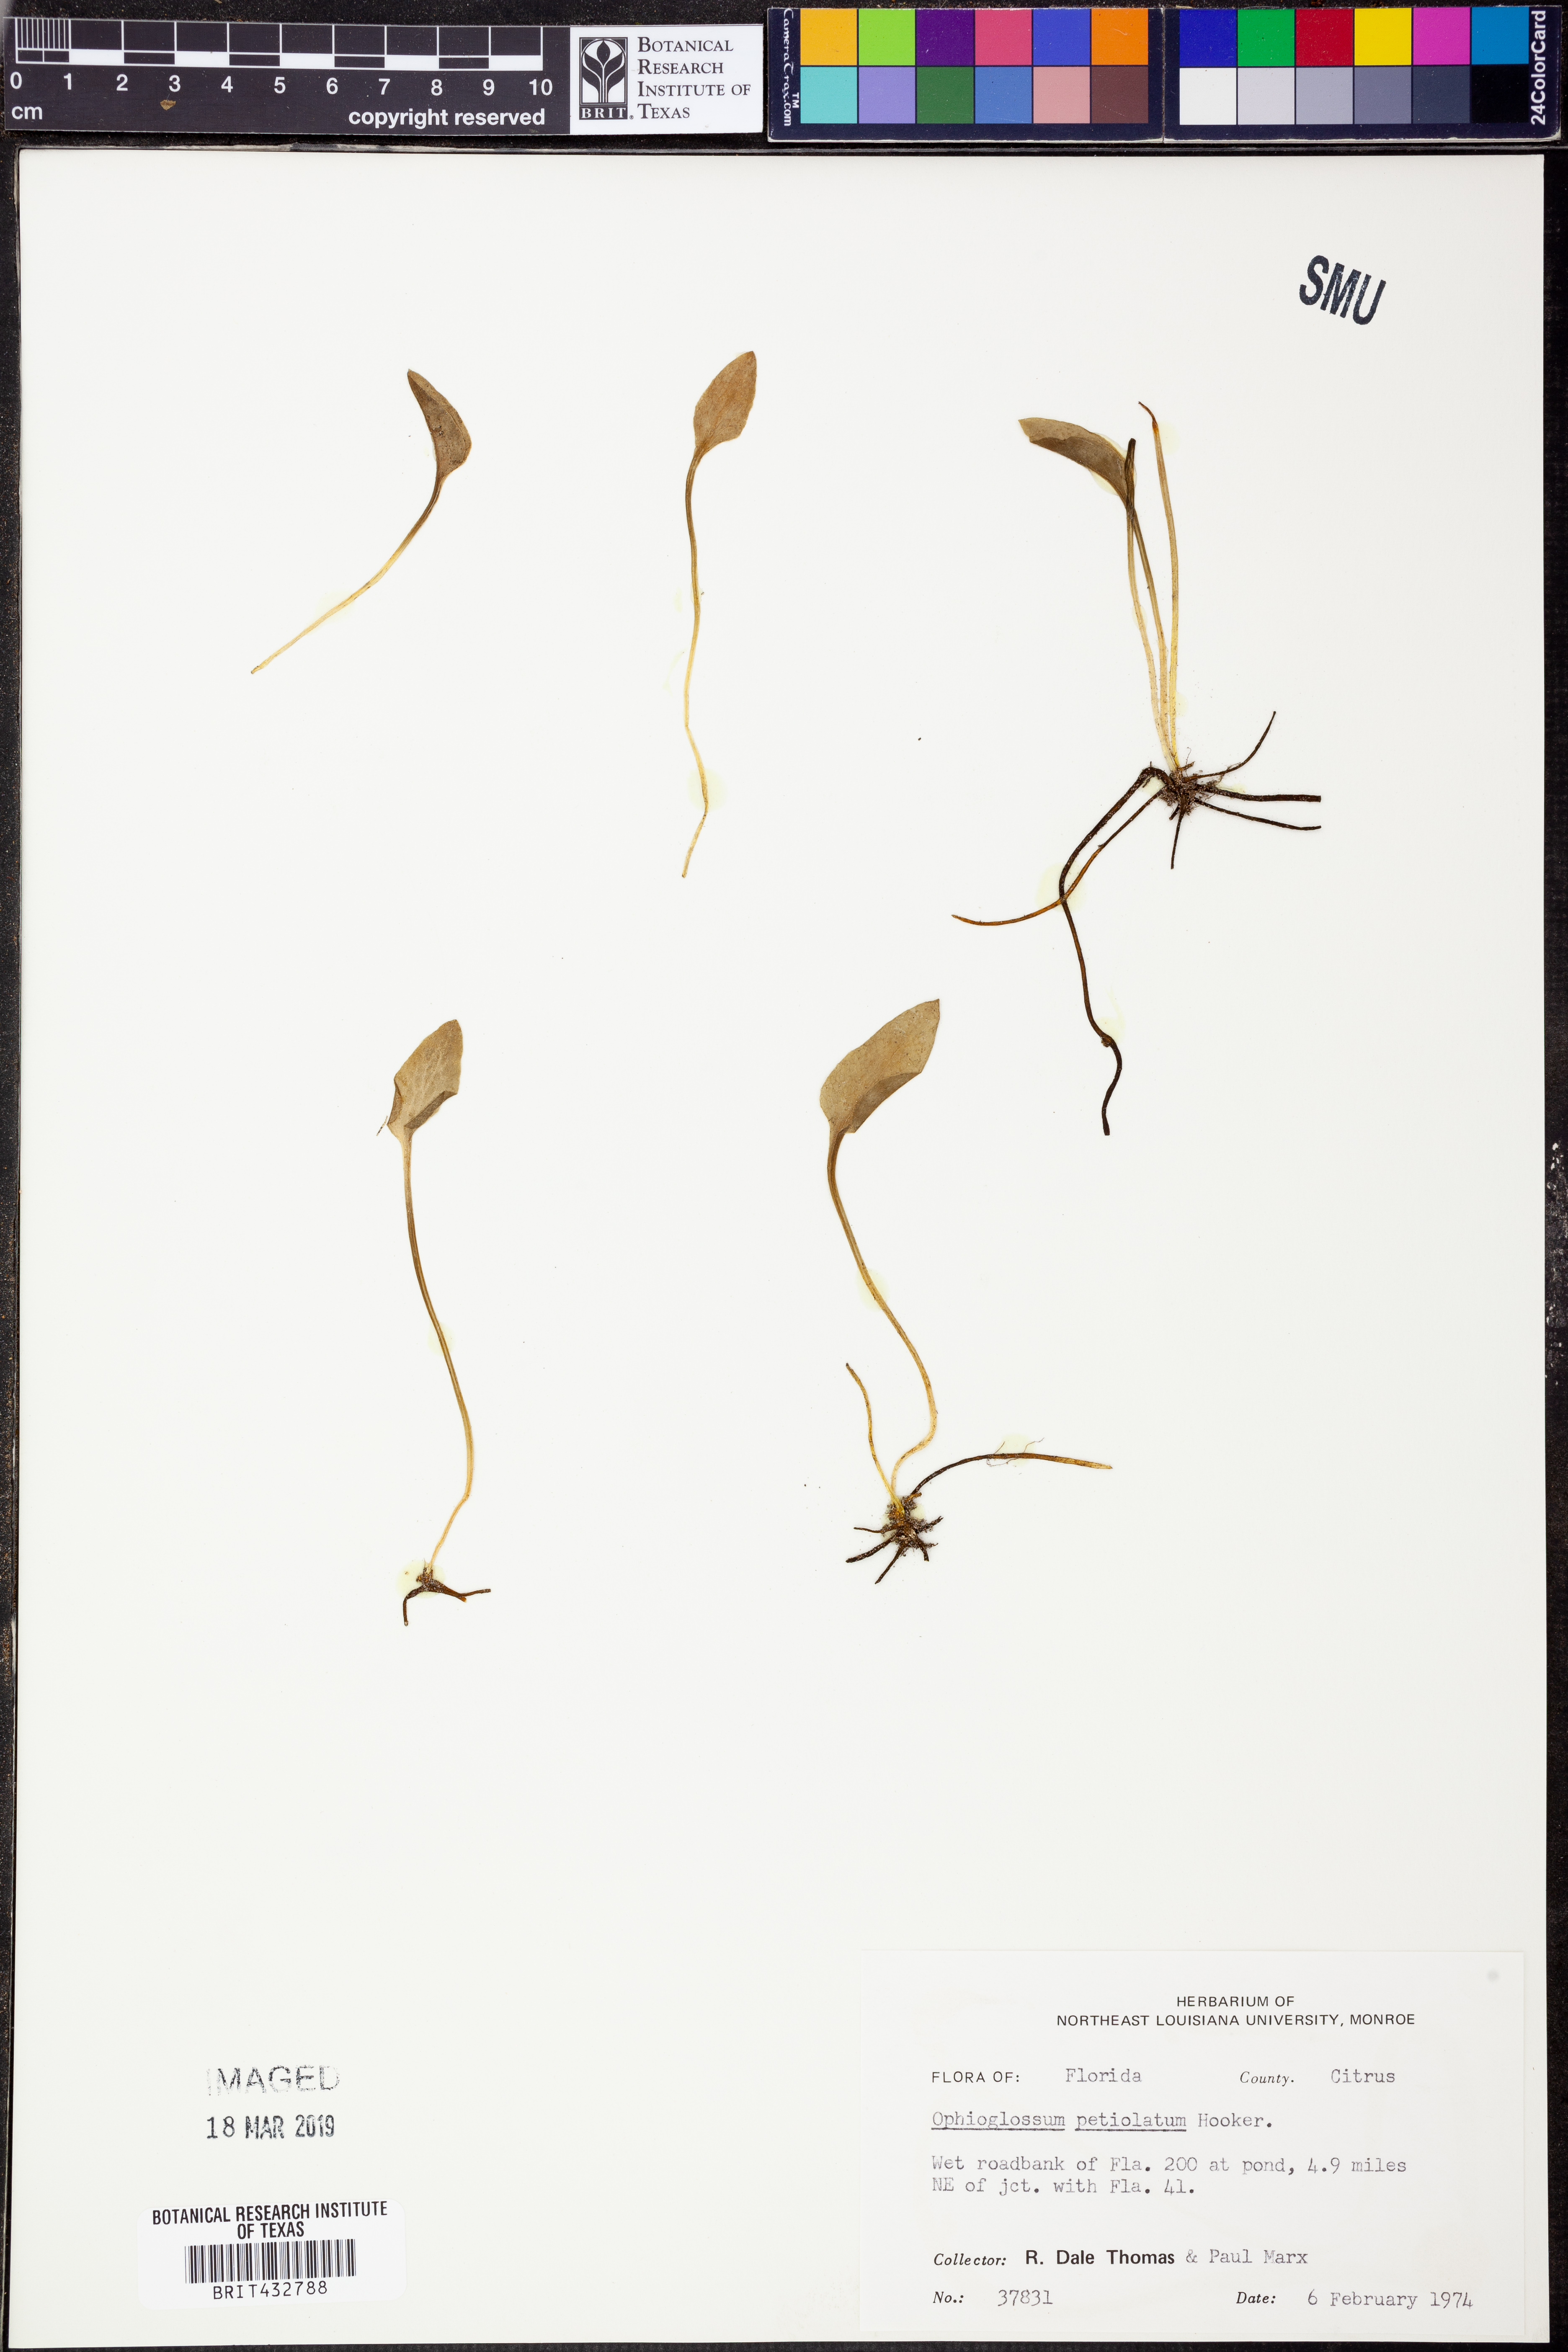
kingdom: Plantae
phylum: Tracheophyta
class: Polypodiopsida
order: Ophioglossales
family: Ophioglossaceae
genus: Ophioglossum
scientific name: Ophioglossum petiolatum
